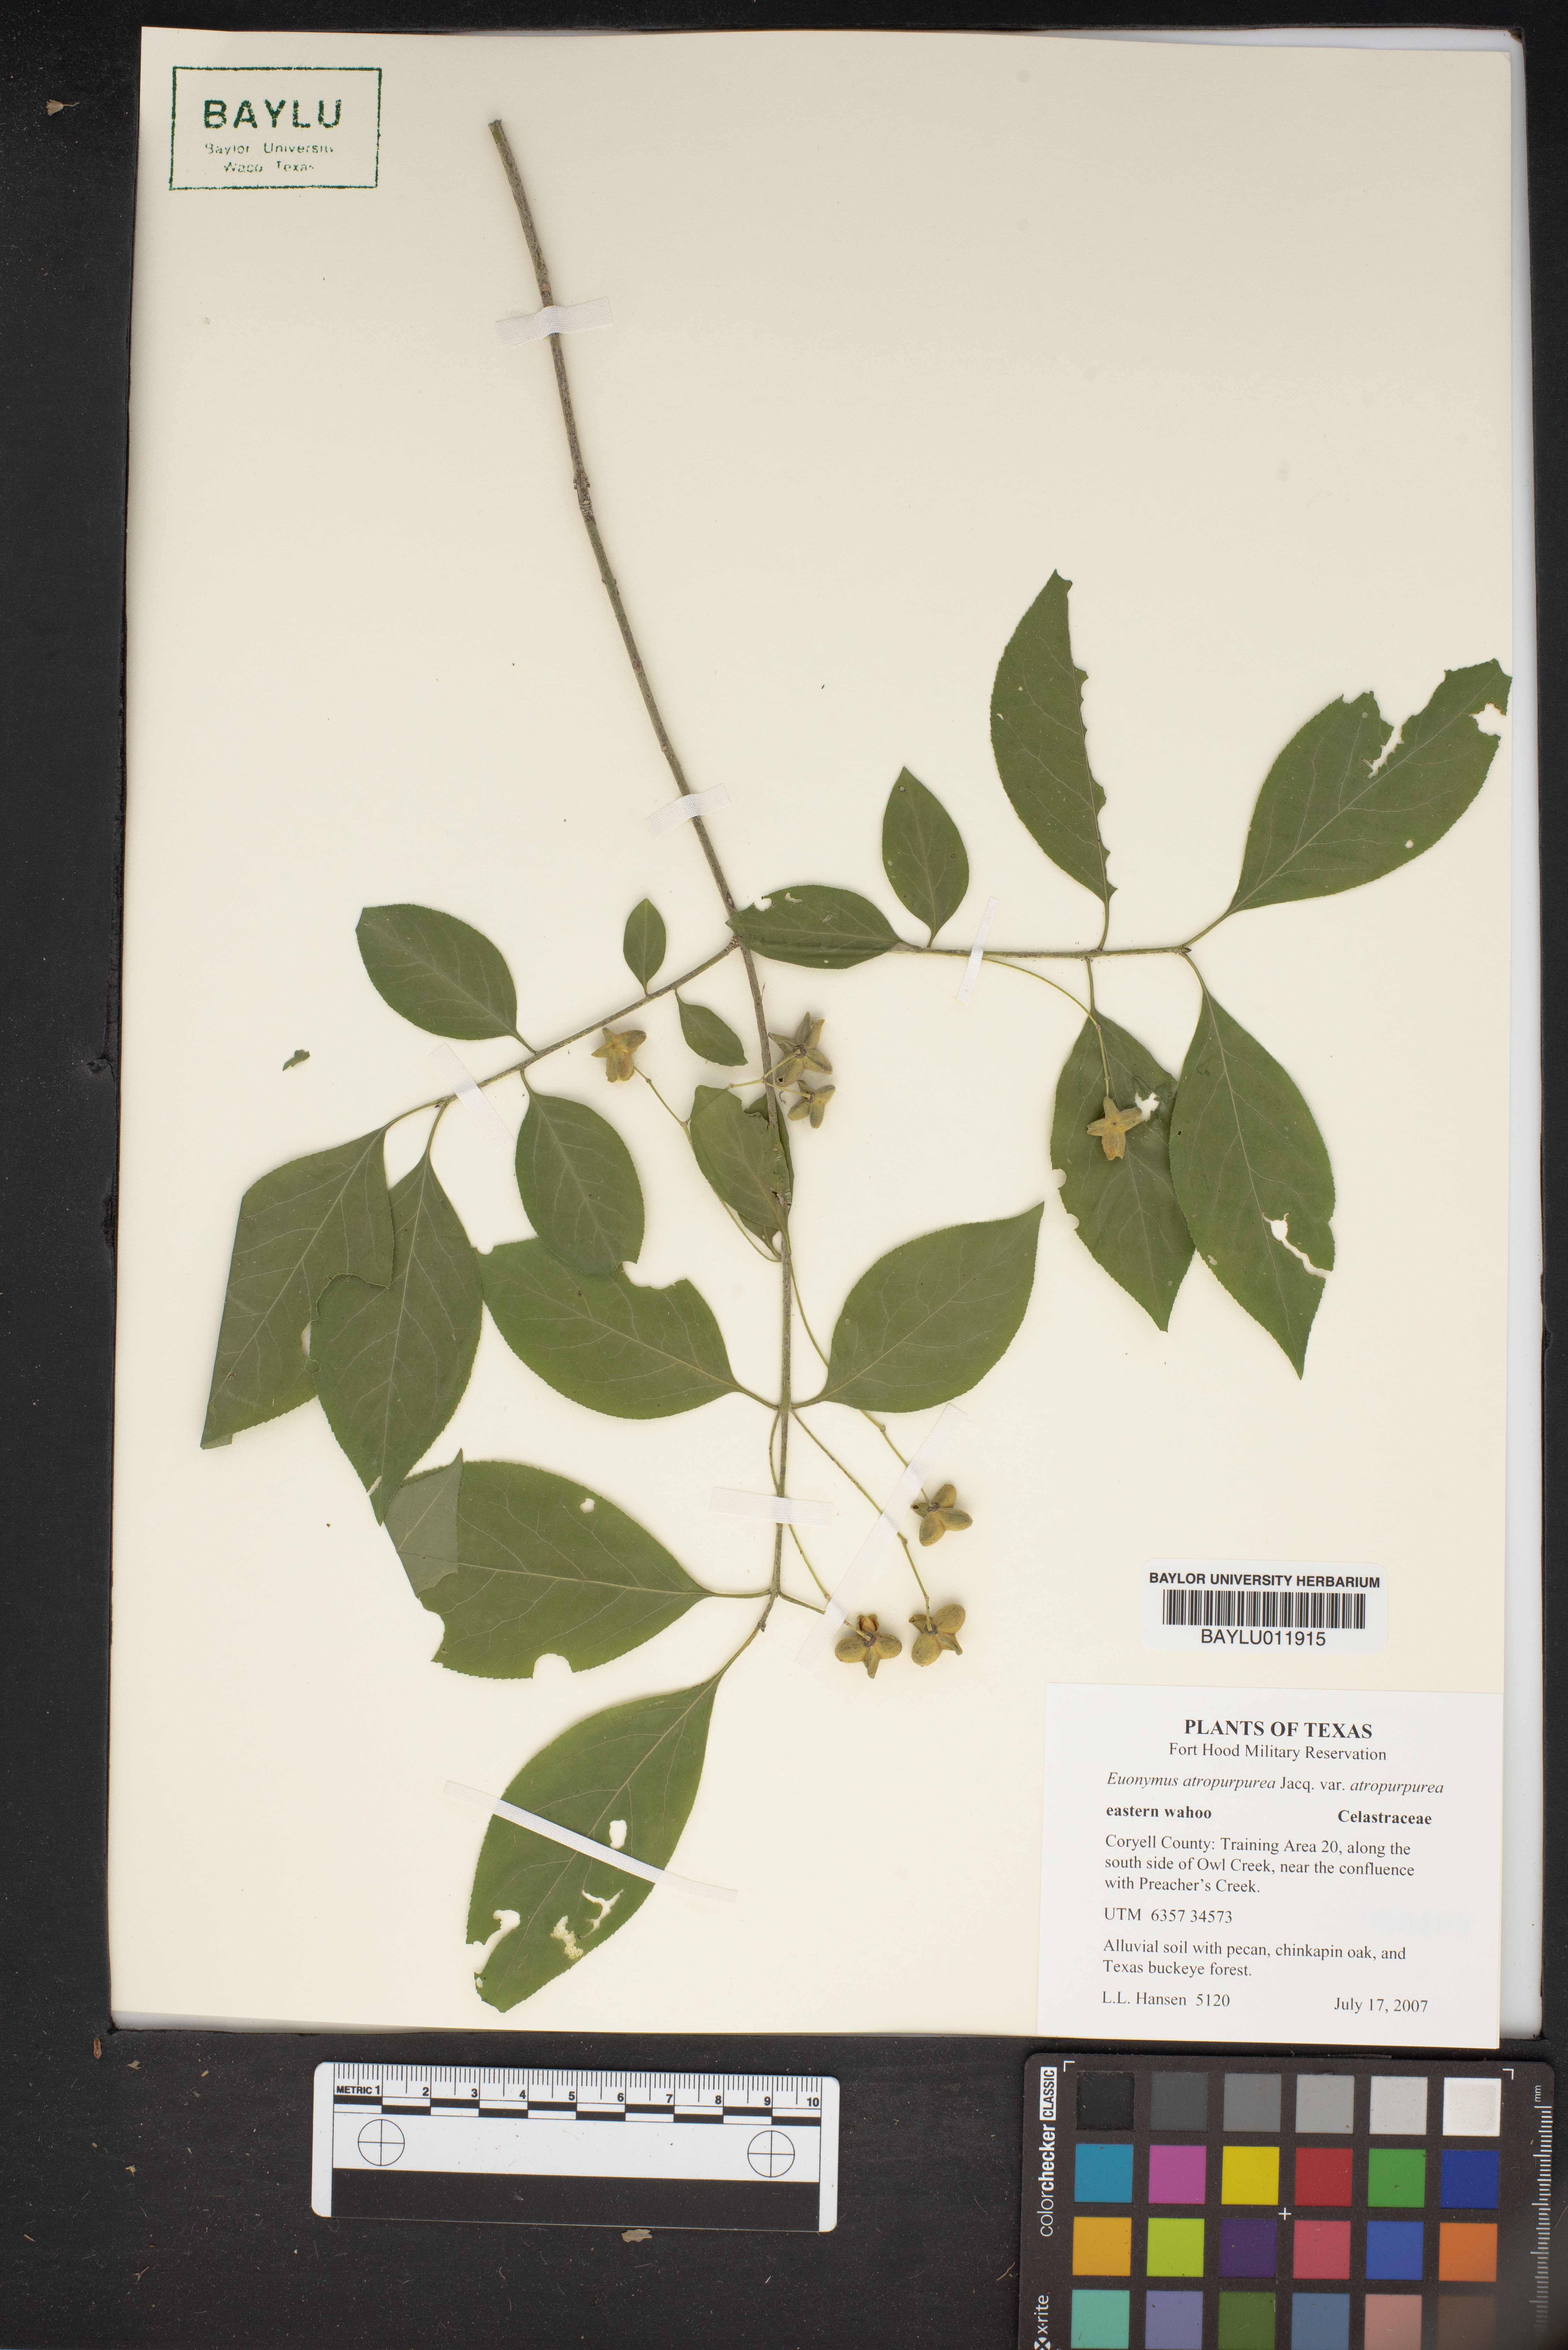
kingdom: Plantae
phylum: Tracheophyta
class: Magnoliopsida
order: Celastrales
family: Celastraceae
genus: Euonymus
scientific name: Euonymus atropurpureus
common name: Eastern wahoo
